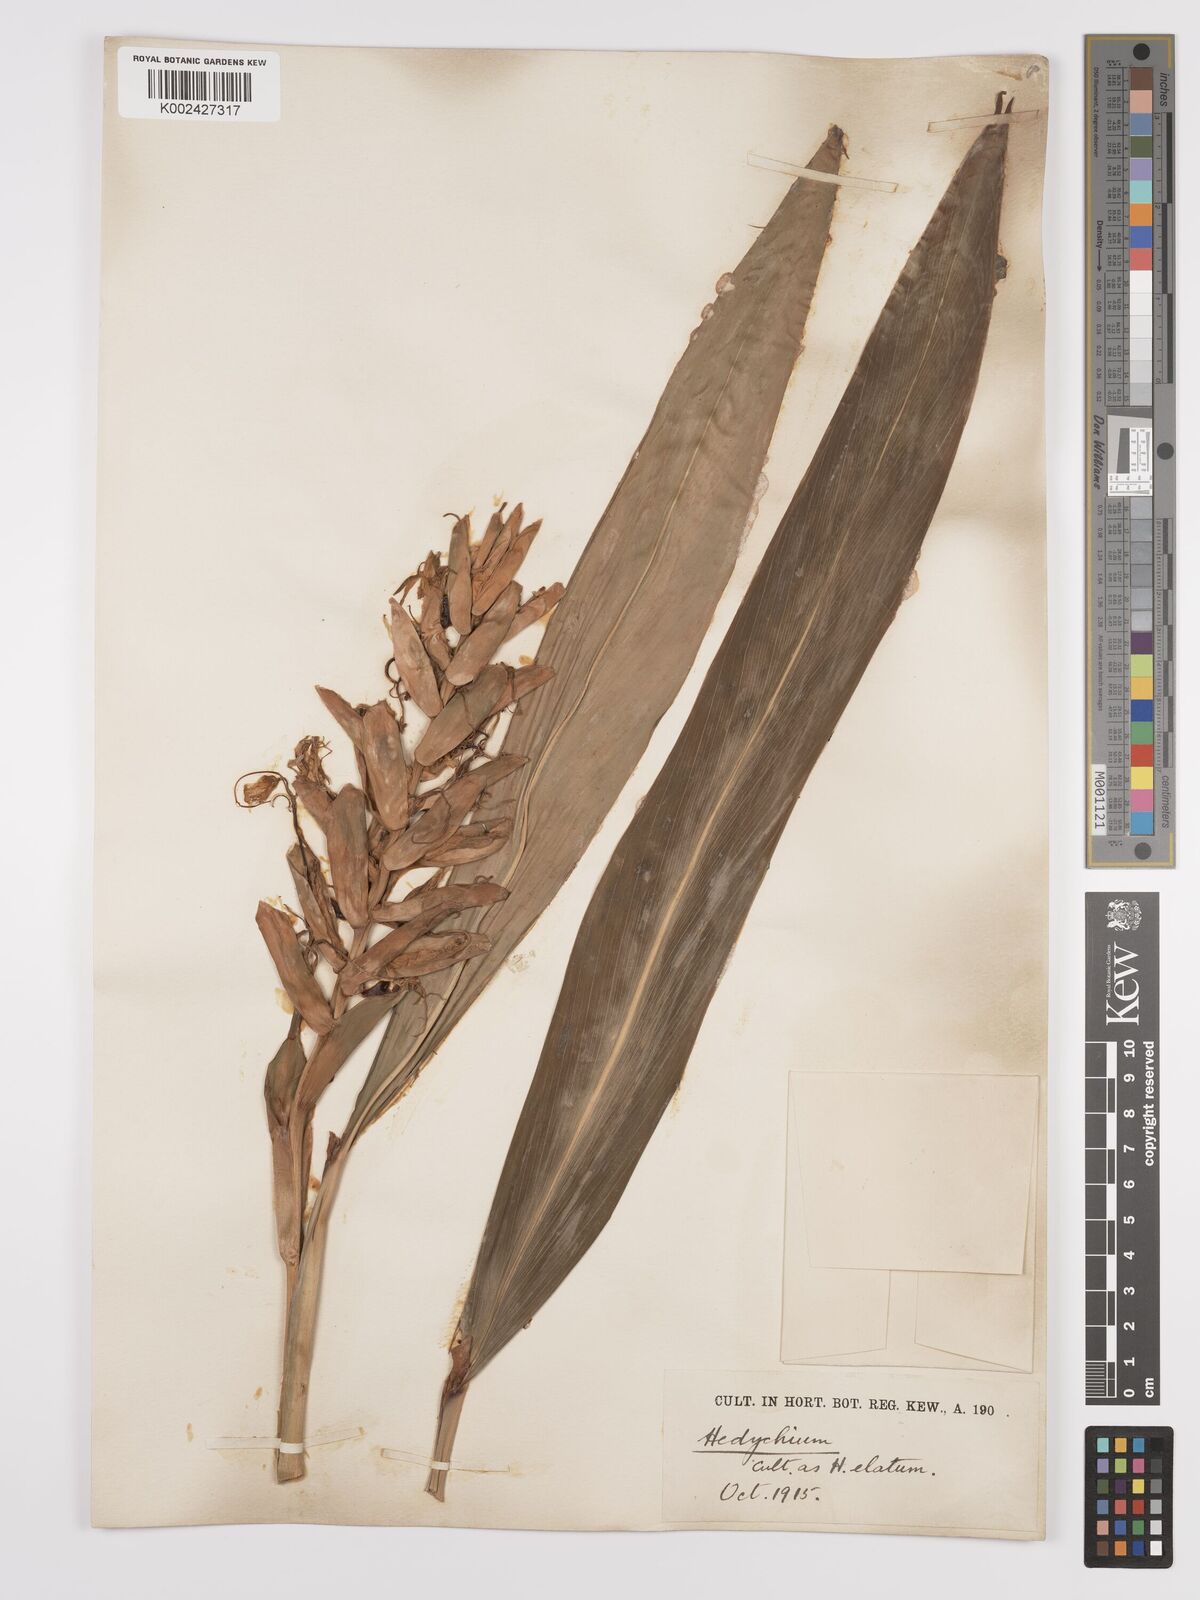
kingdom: Plantae
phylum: Tracheophyta
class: Liliopsida
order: Zingiberales
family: Zingiberaceae
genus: Hedychium
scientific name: Hedychium elatum
